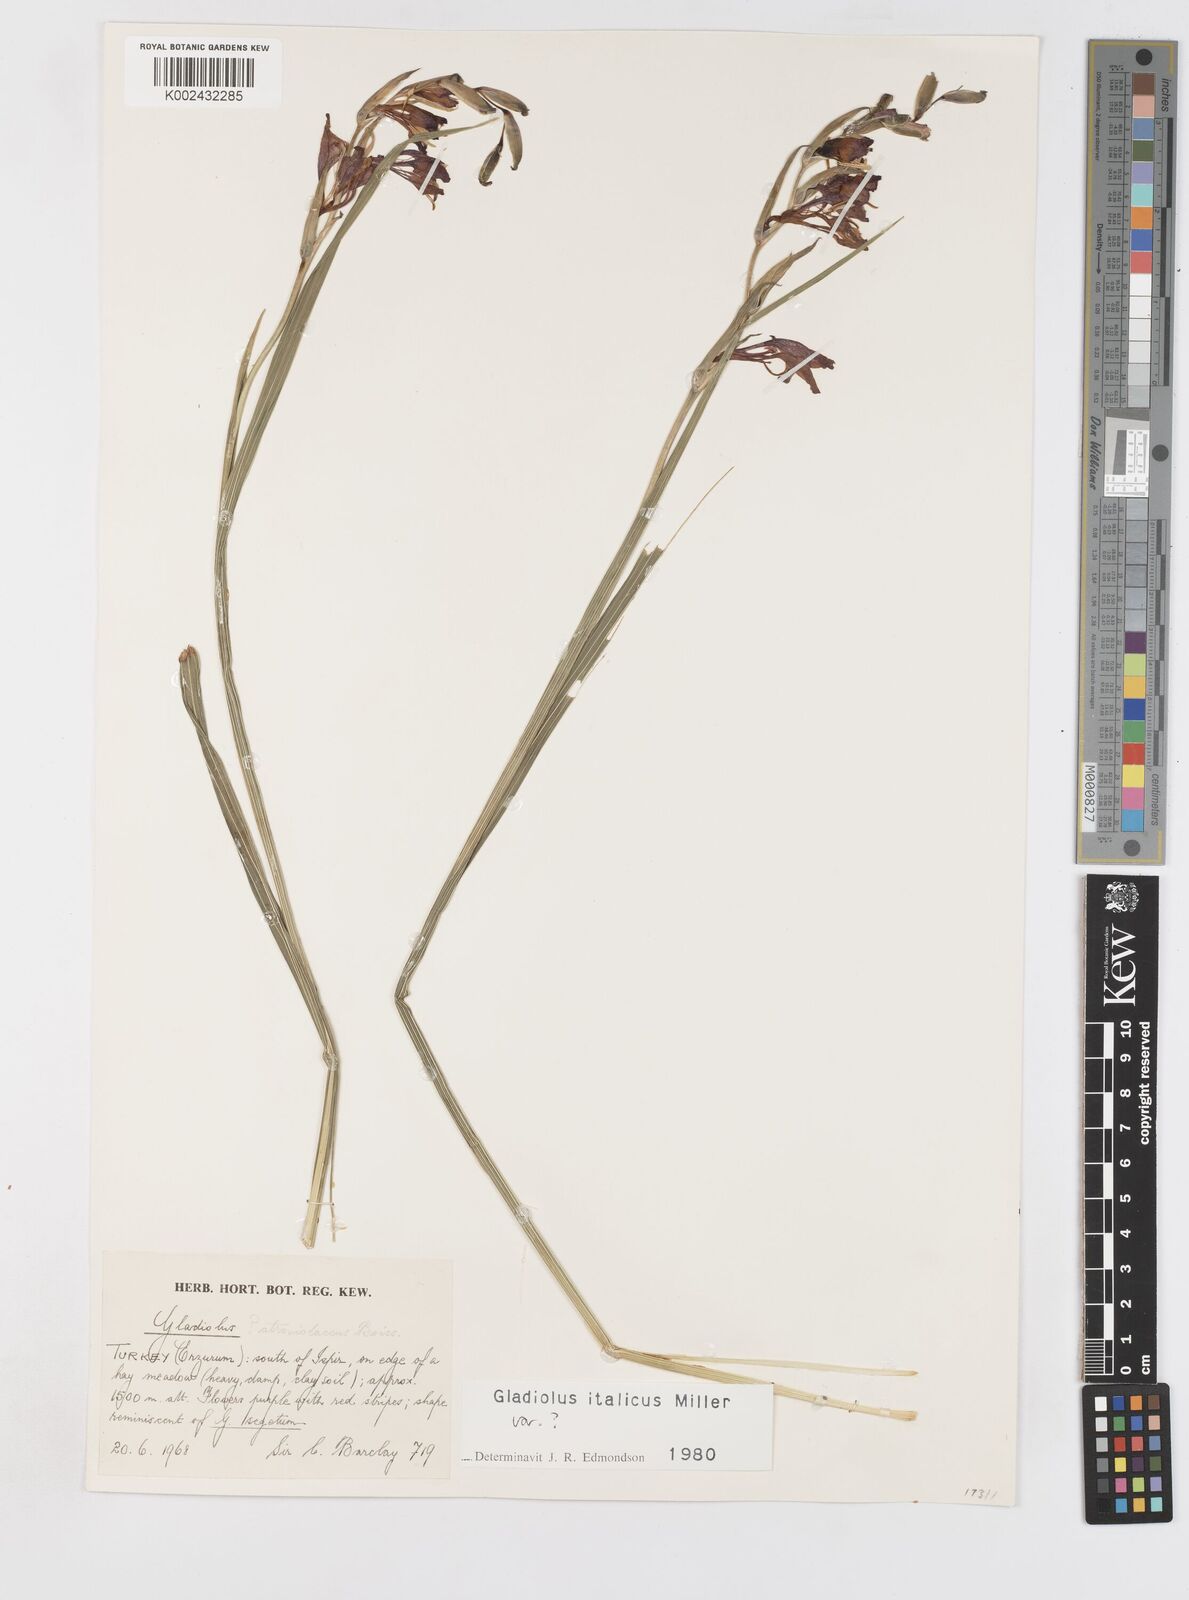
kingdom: Plantae
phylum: Tracheophyta
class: Liliopsida
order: Asparagales
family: Iridaceae
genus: Gladiolus
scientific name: Gladiolus italicus
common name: Field gladiolus
